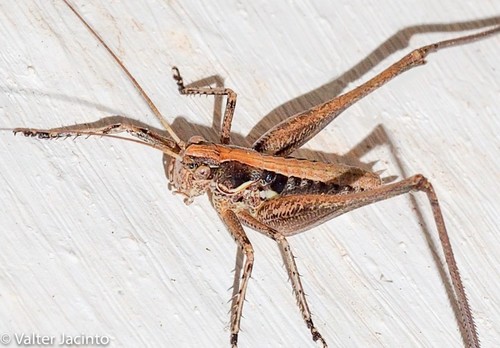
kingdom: Animalia
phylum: Arthropoda
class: Insecta
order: Orthoptera
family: Tettigoniidae
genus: Pterolepis
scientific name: Pterolepis spoliata
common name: Disarmed bush-cricket
